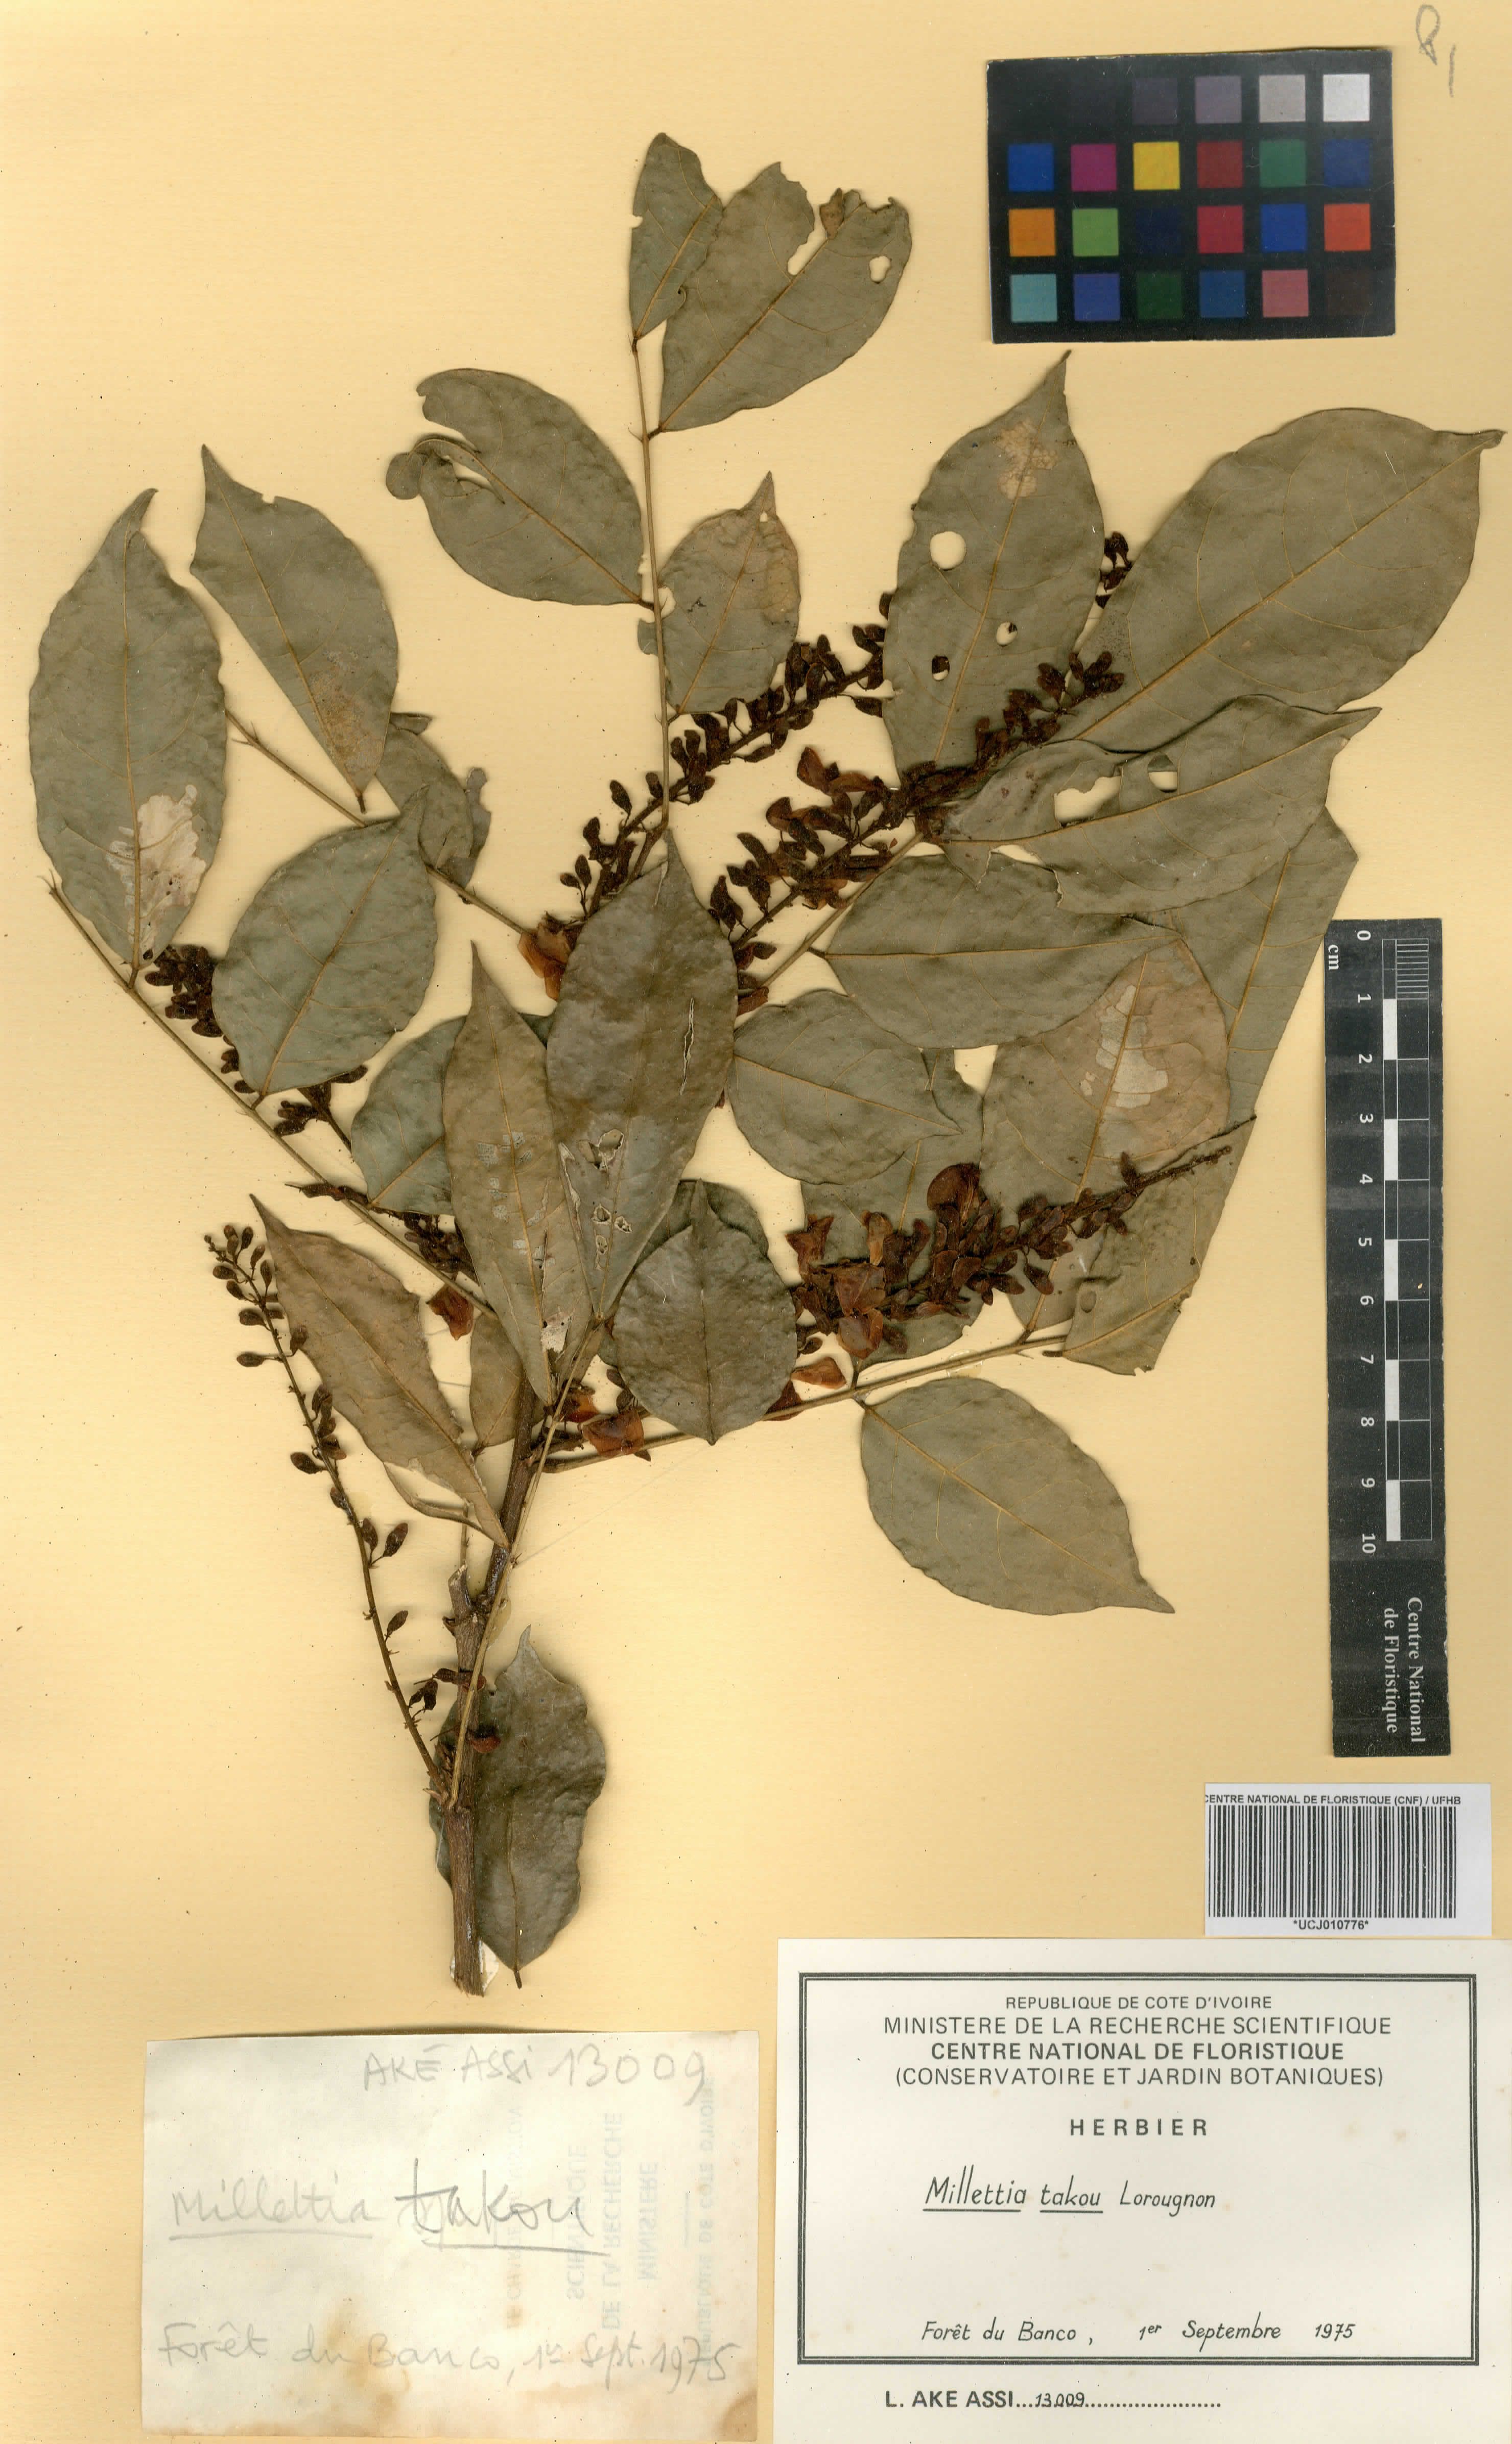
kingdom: Plantae
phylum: Tracheophyta
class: Magnoliopsida
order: Fabales
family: Fabaceae
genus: Millettia
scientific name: Millettia takou
